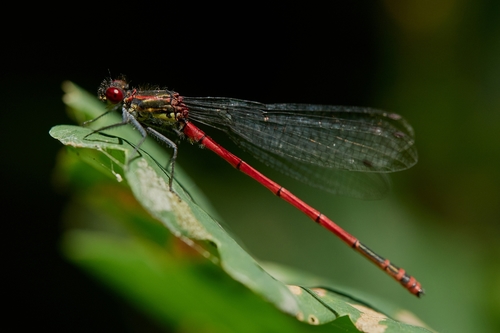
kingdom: Animalia
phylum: Arthropoda
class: Insecta
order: Odonata
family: Coenagrionidae
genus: Pyrrhosoma
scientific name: Pyrrhosoma nymphula
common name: Large red damsel
